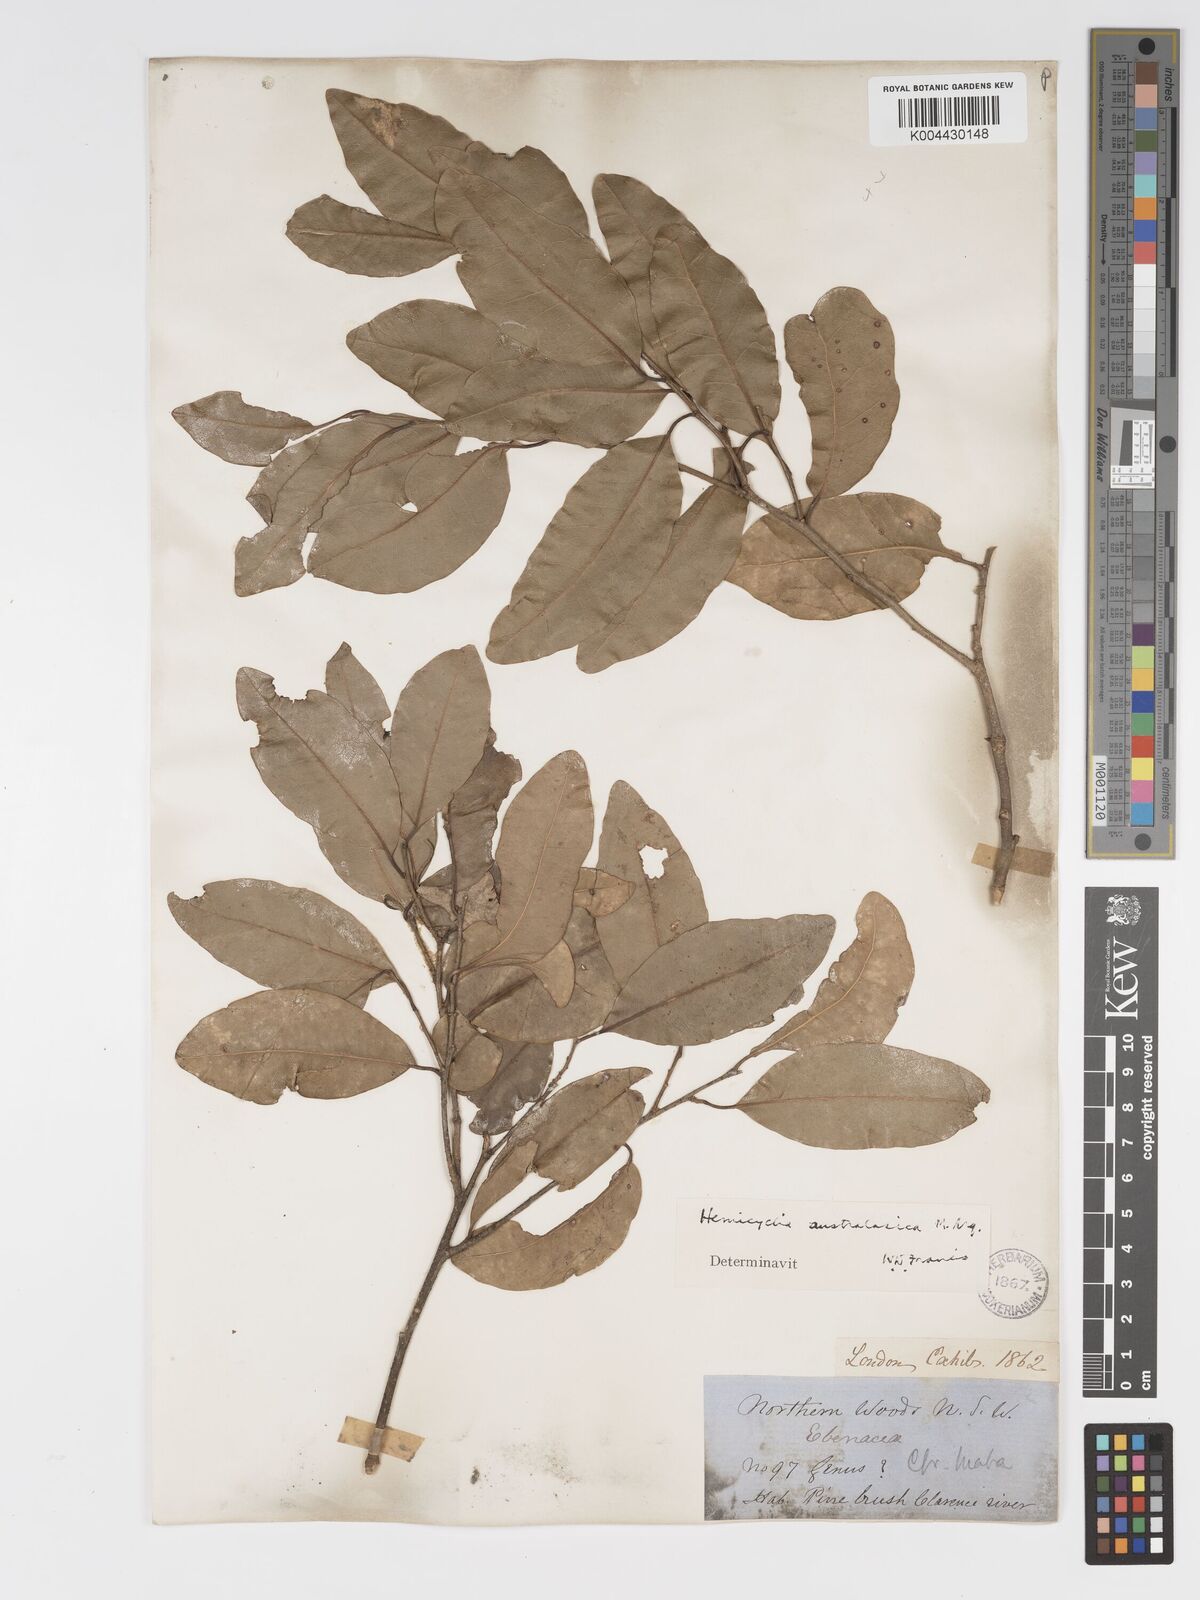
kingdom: Plantae
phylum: Tracheophyta
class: Magnoliopsida
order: Malpighiales
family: Putranjivaceae
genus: Drypetes
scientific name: Drypetes deplanchei
